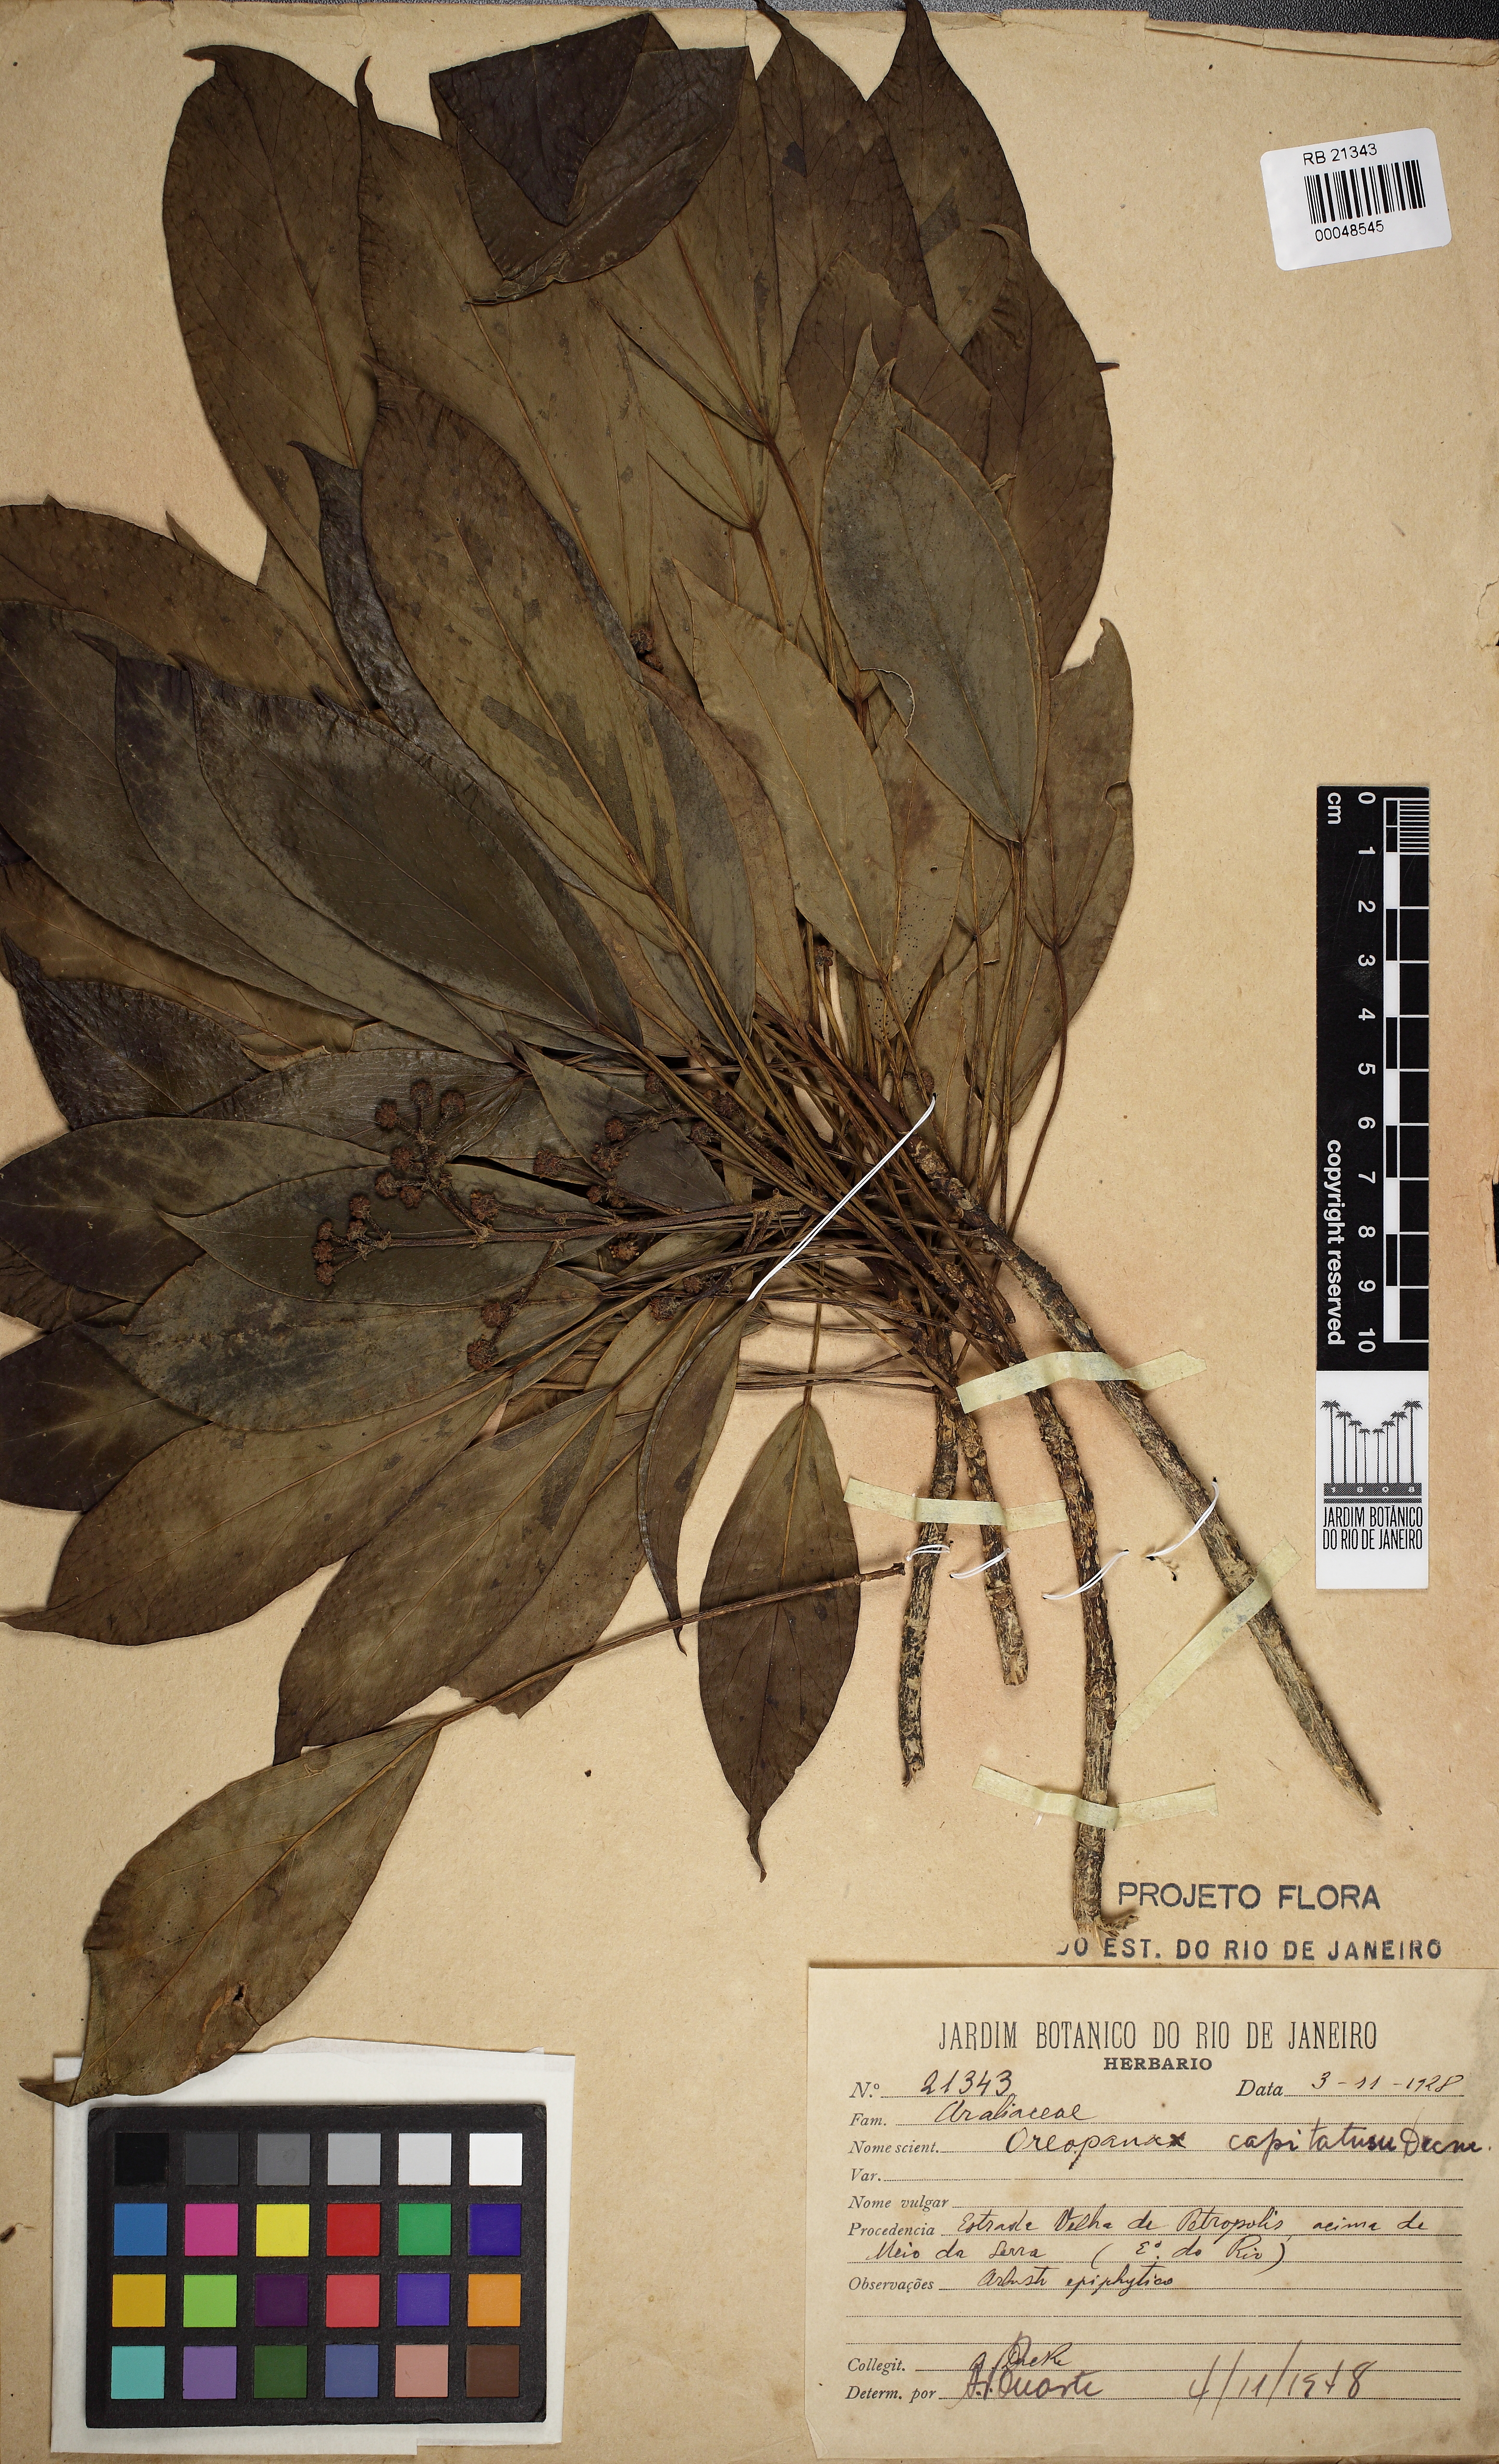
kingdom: Plantae
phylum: Tracheophyta
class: Magnoliopsida
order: Apiales
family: Araliaceae
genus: Oreopanax
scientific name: Oreopanax capitatus
